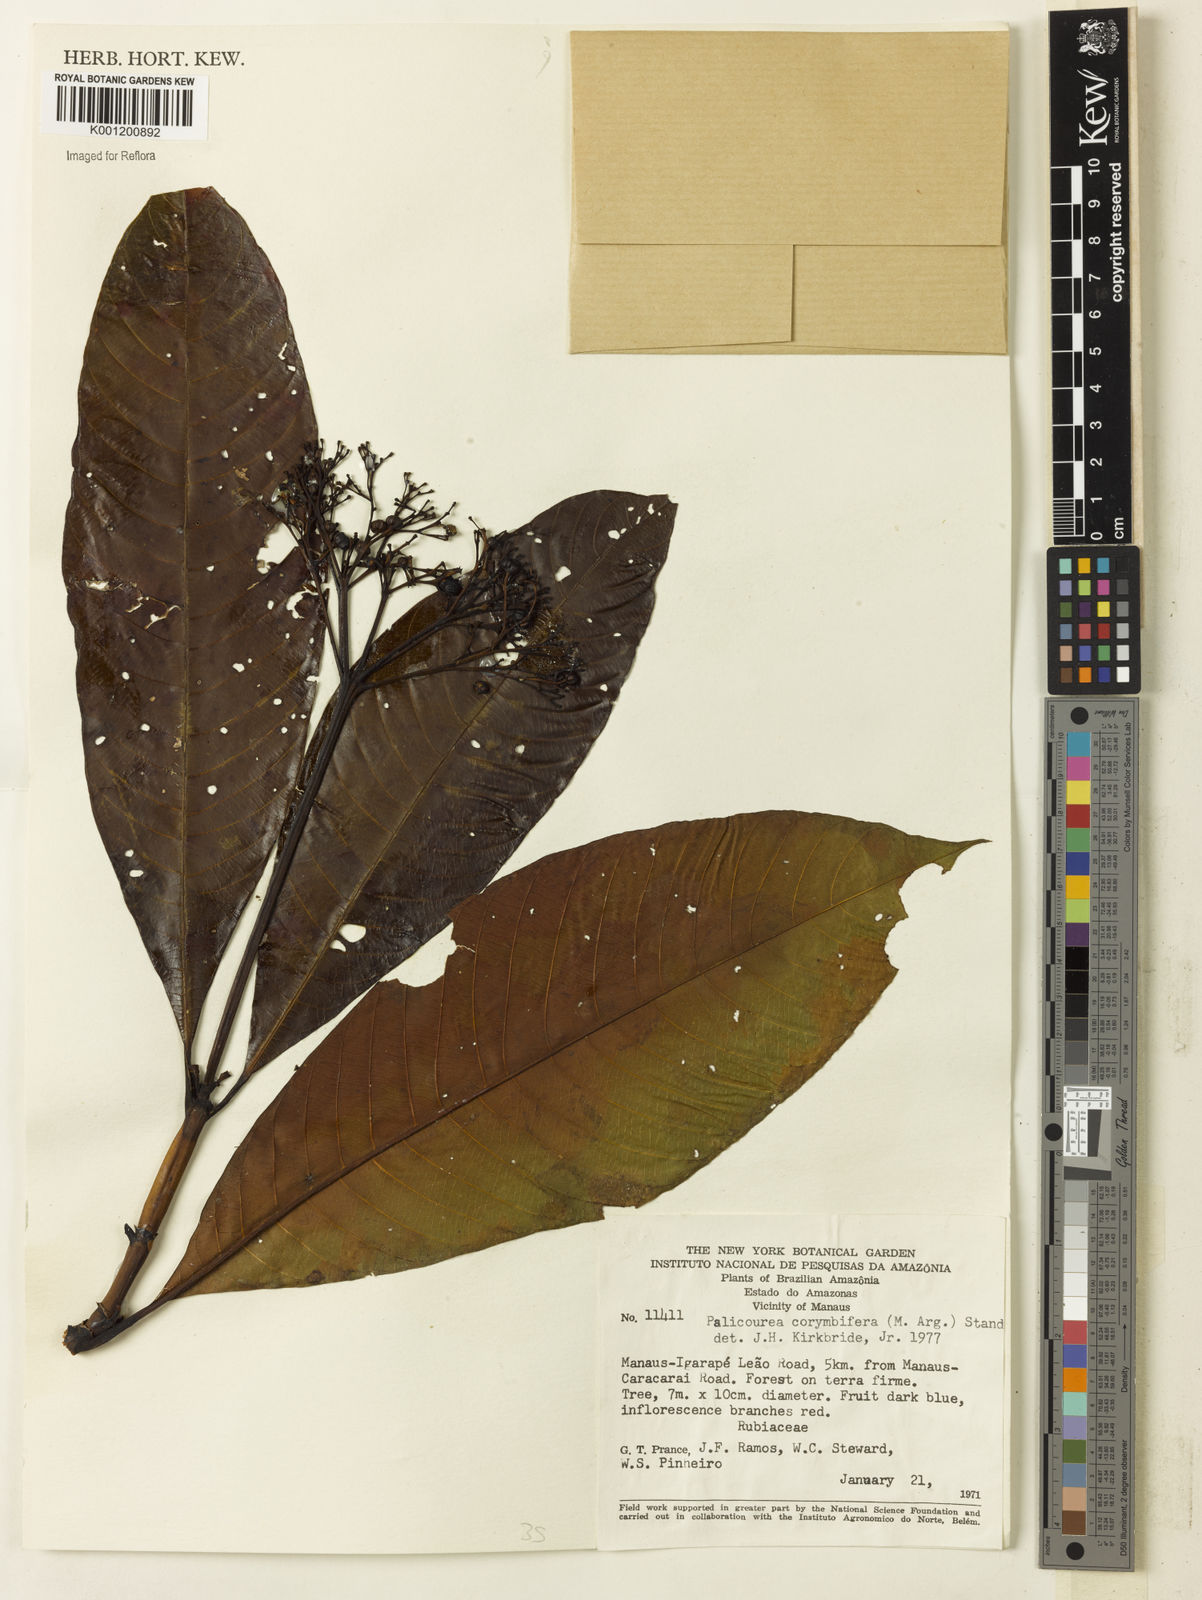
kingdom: Plantae
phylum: Tracheophyta
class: Magnoliopsida
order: Gentianales
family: Rubiaceae
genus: Palicourea
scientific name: Palicourea
